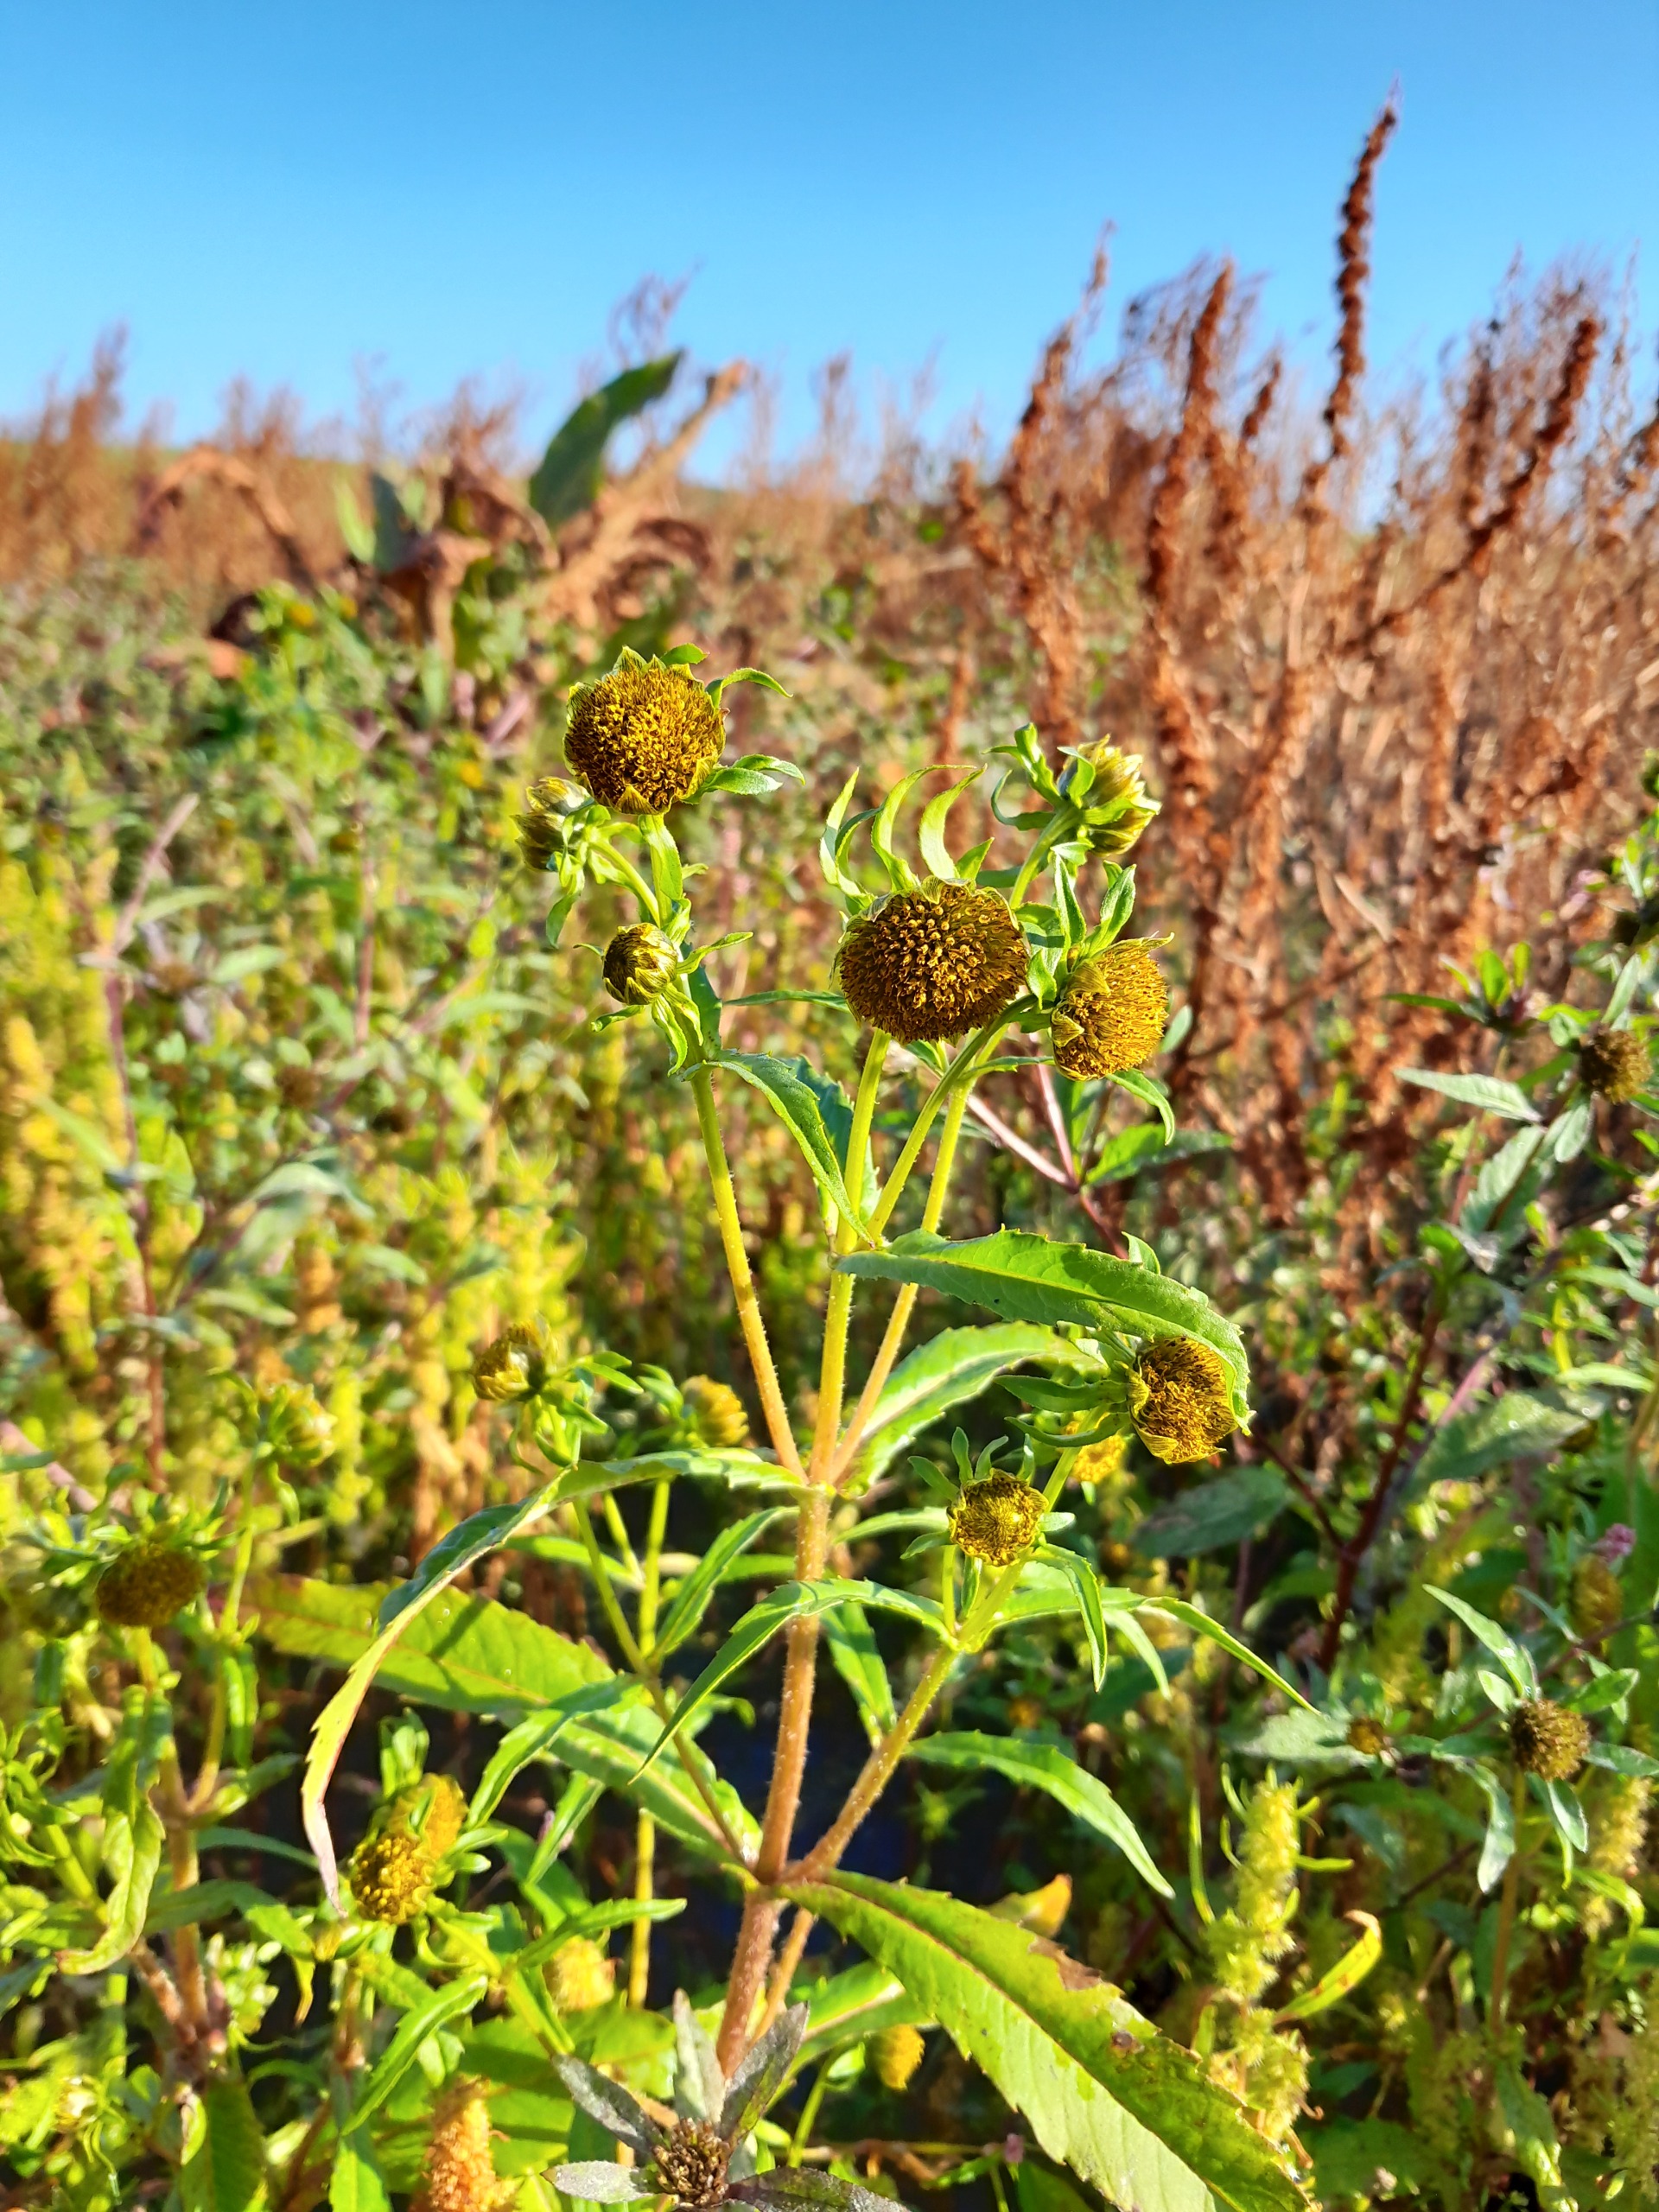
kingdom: Plantae
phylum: Tracheophyta
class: Magnoliopsida
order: Asterales
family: Asteraceae
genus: Bidens
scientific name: Bidens cernua
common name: Nikkende brøndsel
